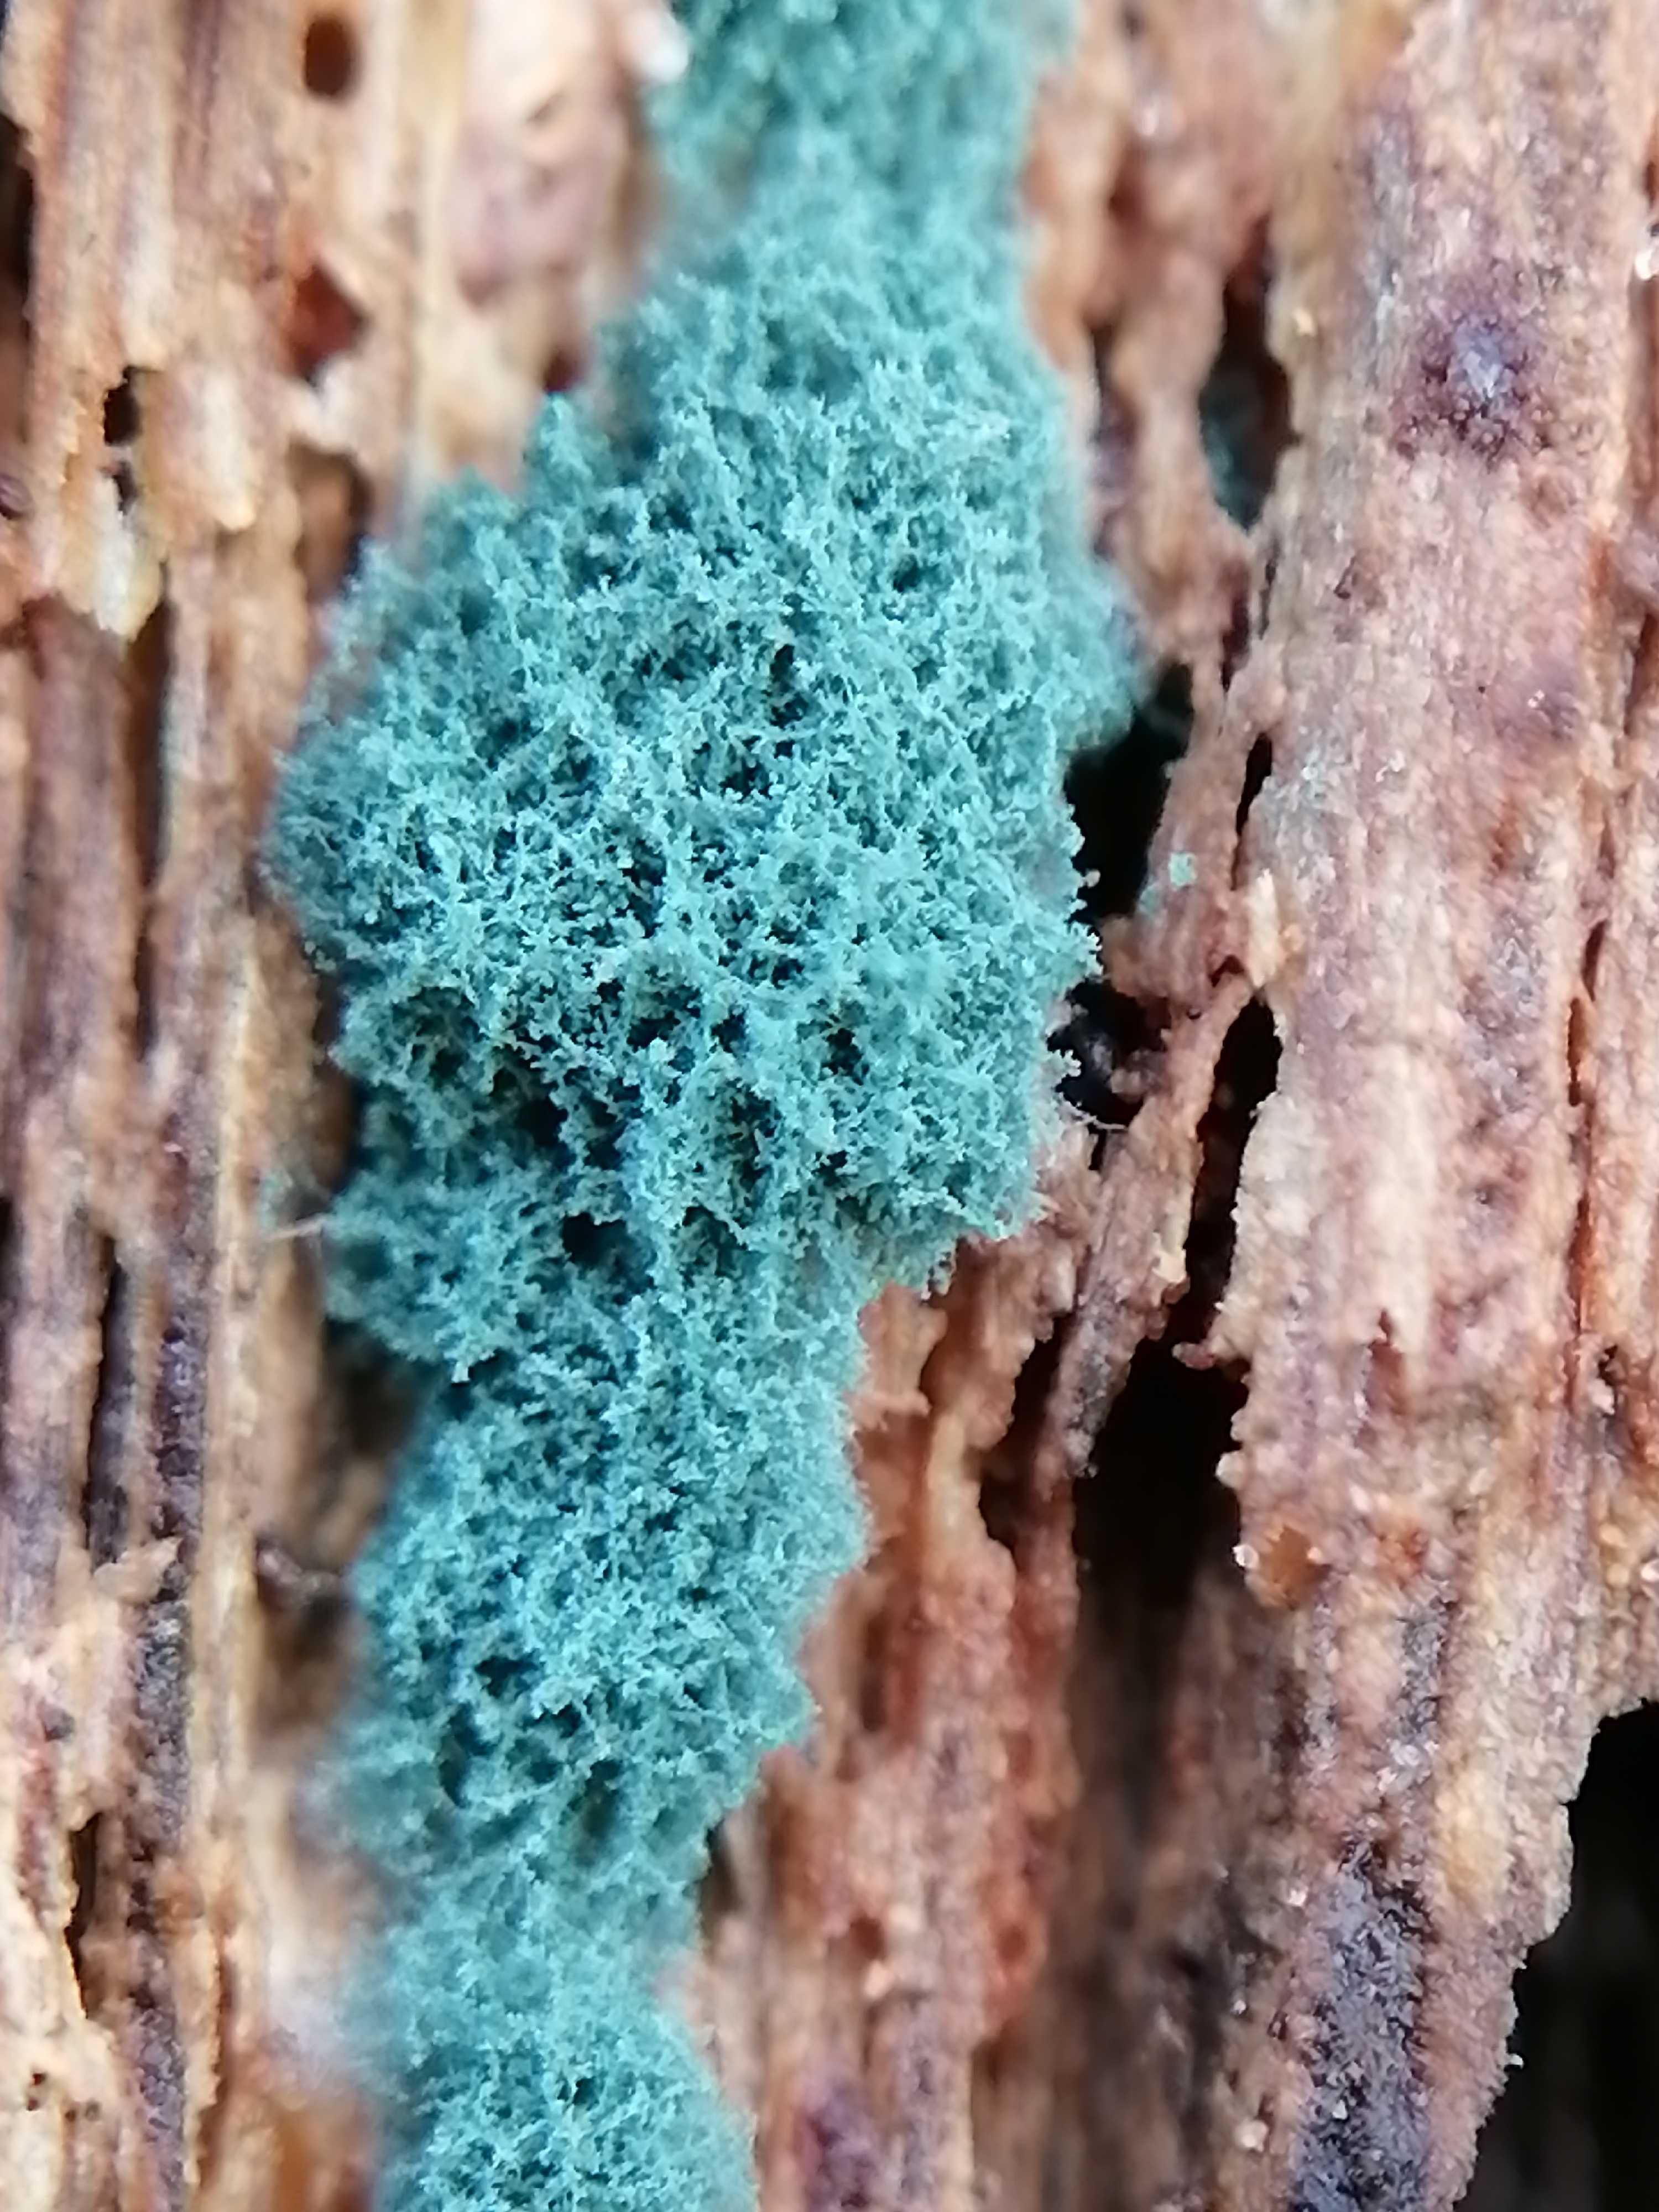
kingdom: Fungi
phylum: Ascomycota
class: Sordariomycetes
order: Hypocreales
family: Hypocreaceae
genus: Trichoderma
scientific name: Trichoderma
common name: kødkerne
